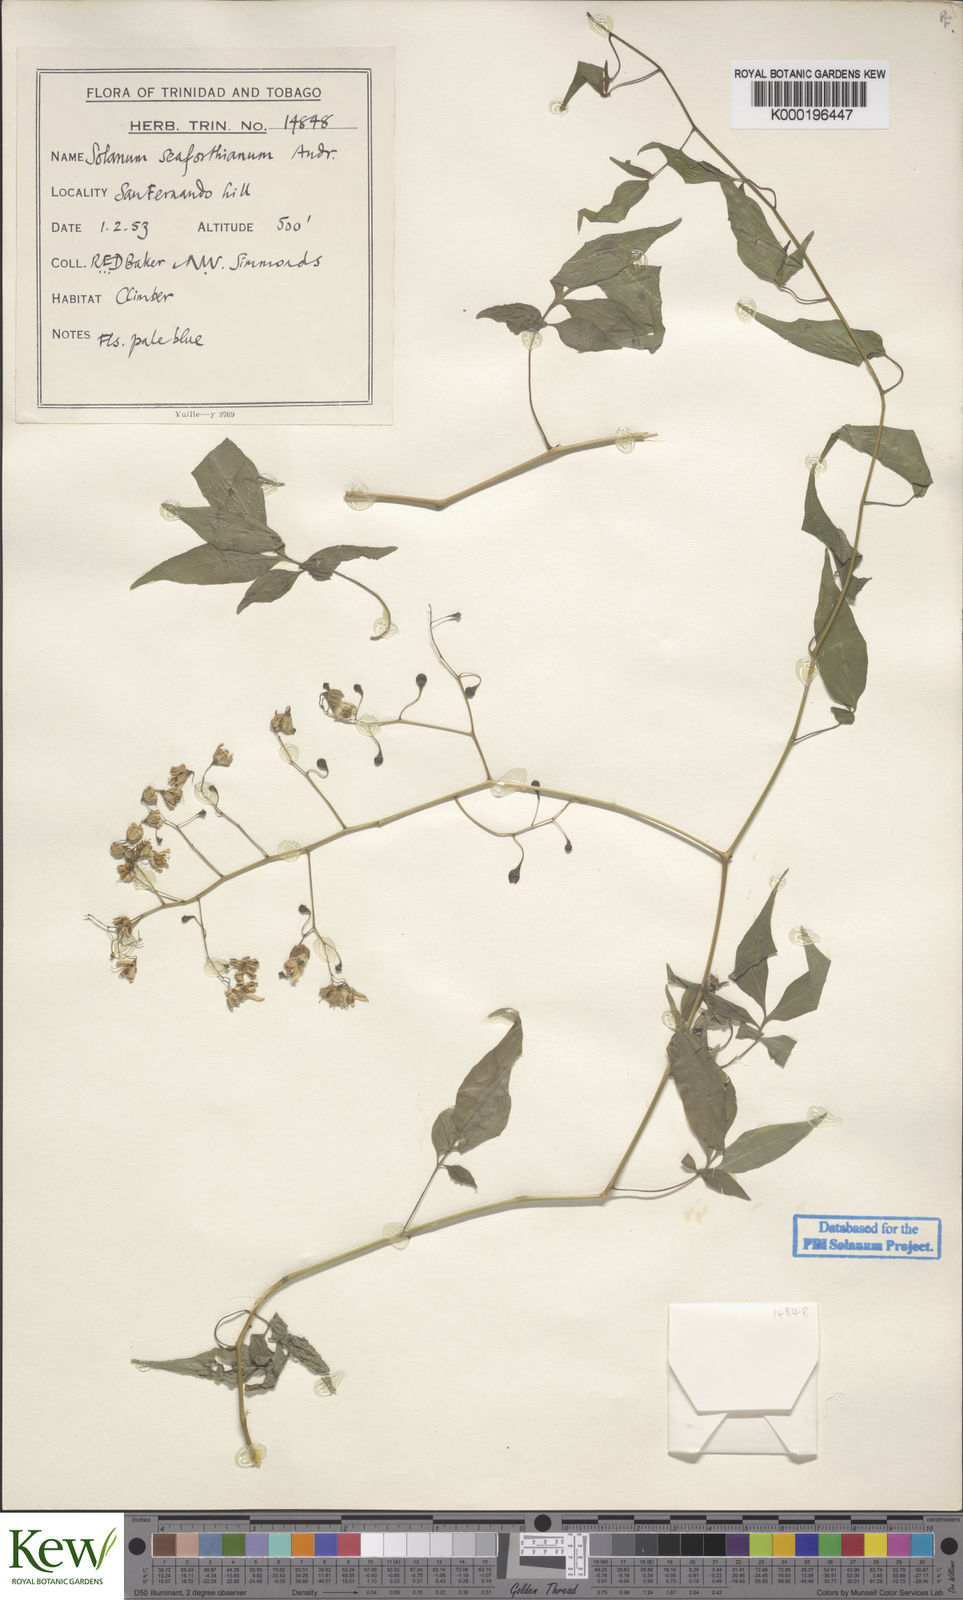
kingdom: Plantae
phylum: Tracheophyta
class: Magnoliopsida
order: Solanales
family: Solanaceae
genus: Solanum
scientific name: Solanum seaforthianum
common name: Brazilian nightshade
